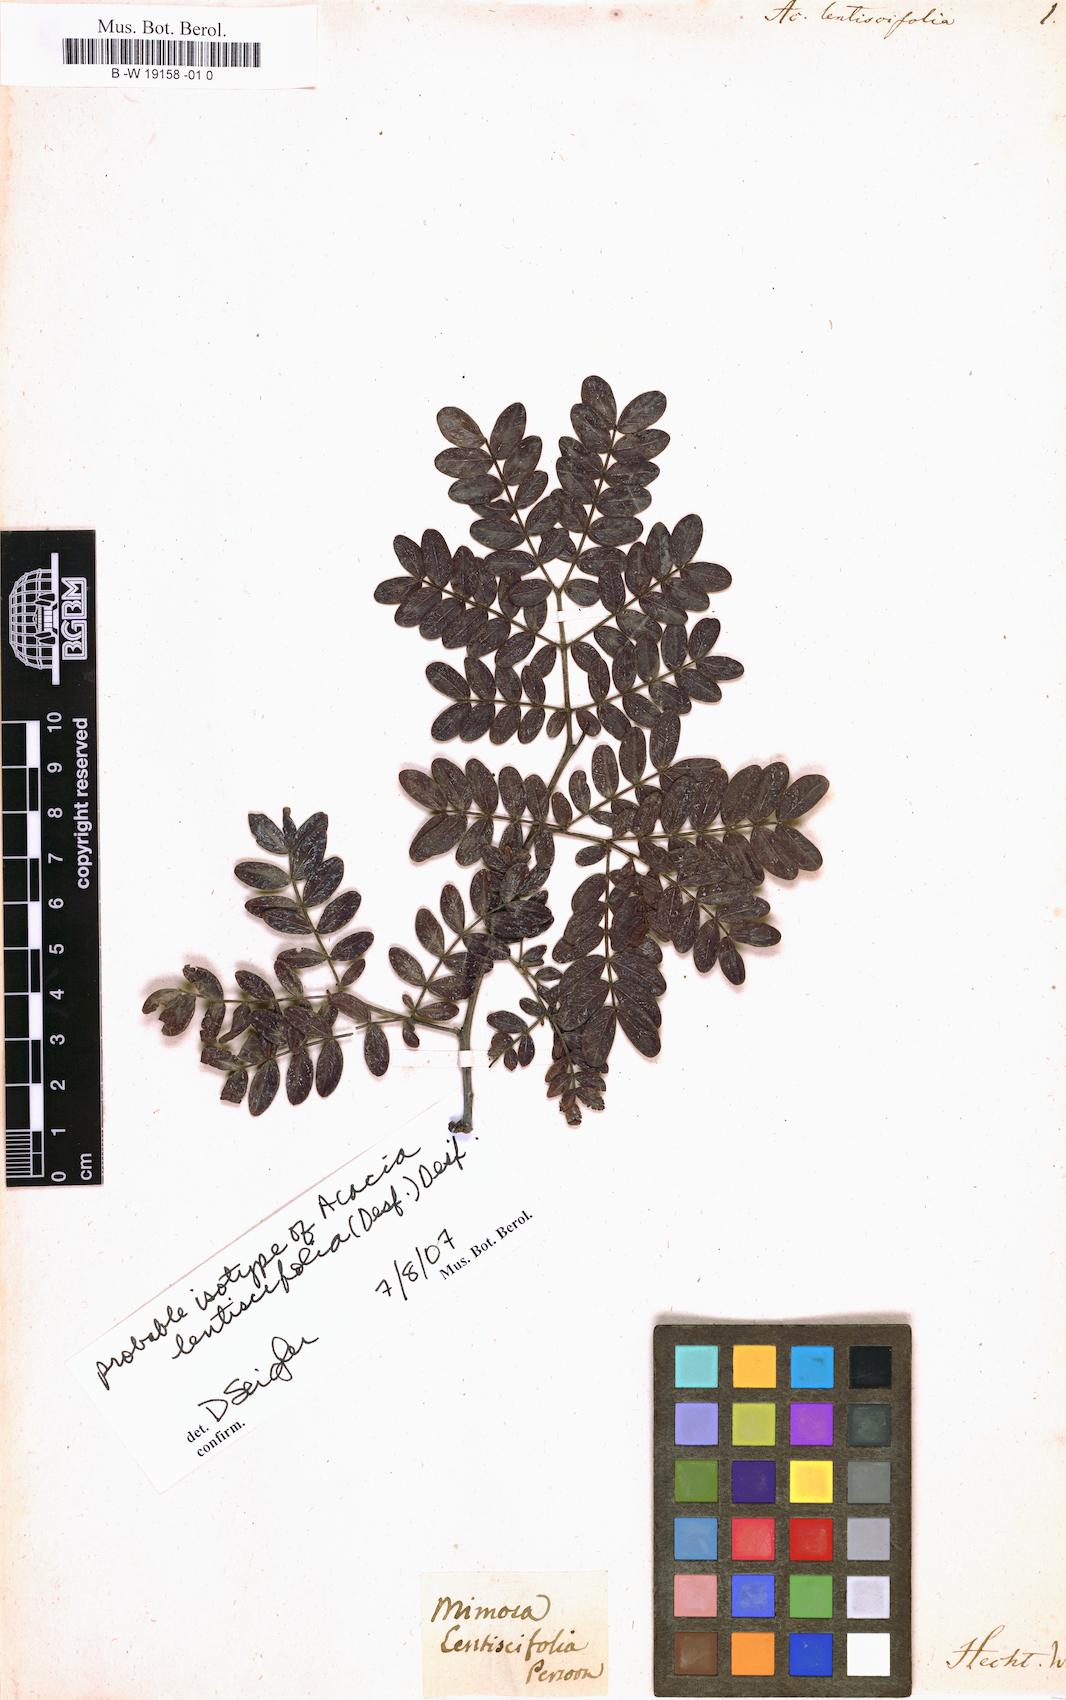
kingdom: Plantae
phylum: Tracheophyta
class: Magnoliopsida
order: Fabales
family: Fabaceae
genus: Chloroleucon
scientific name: Chloroleucon mangense
